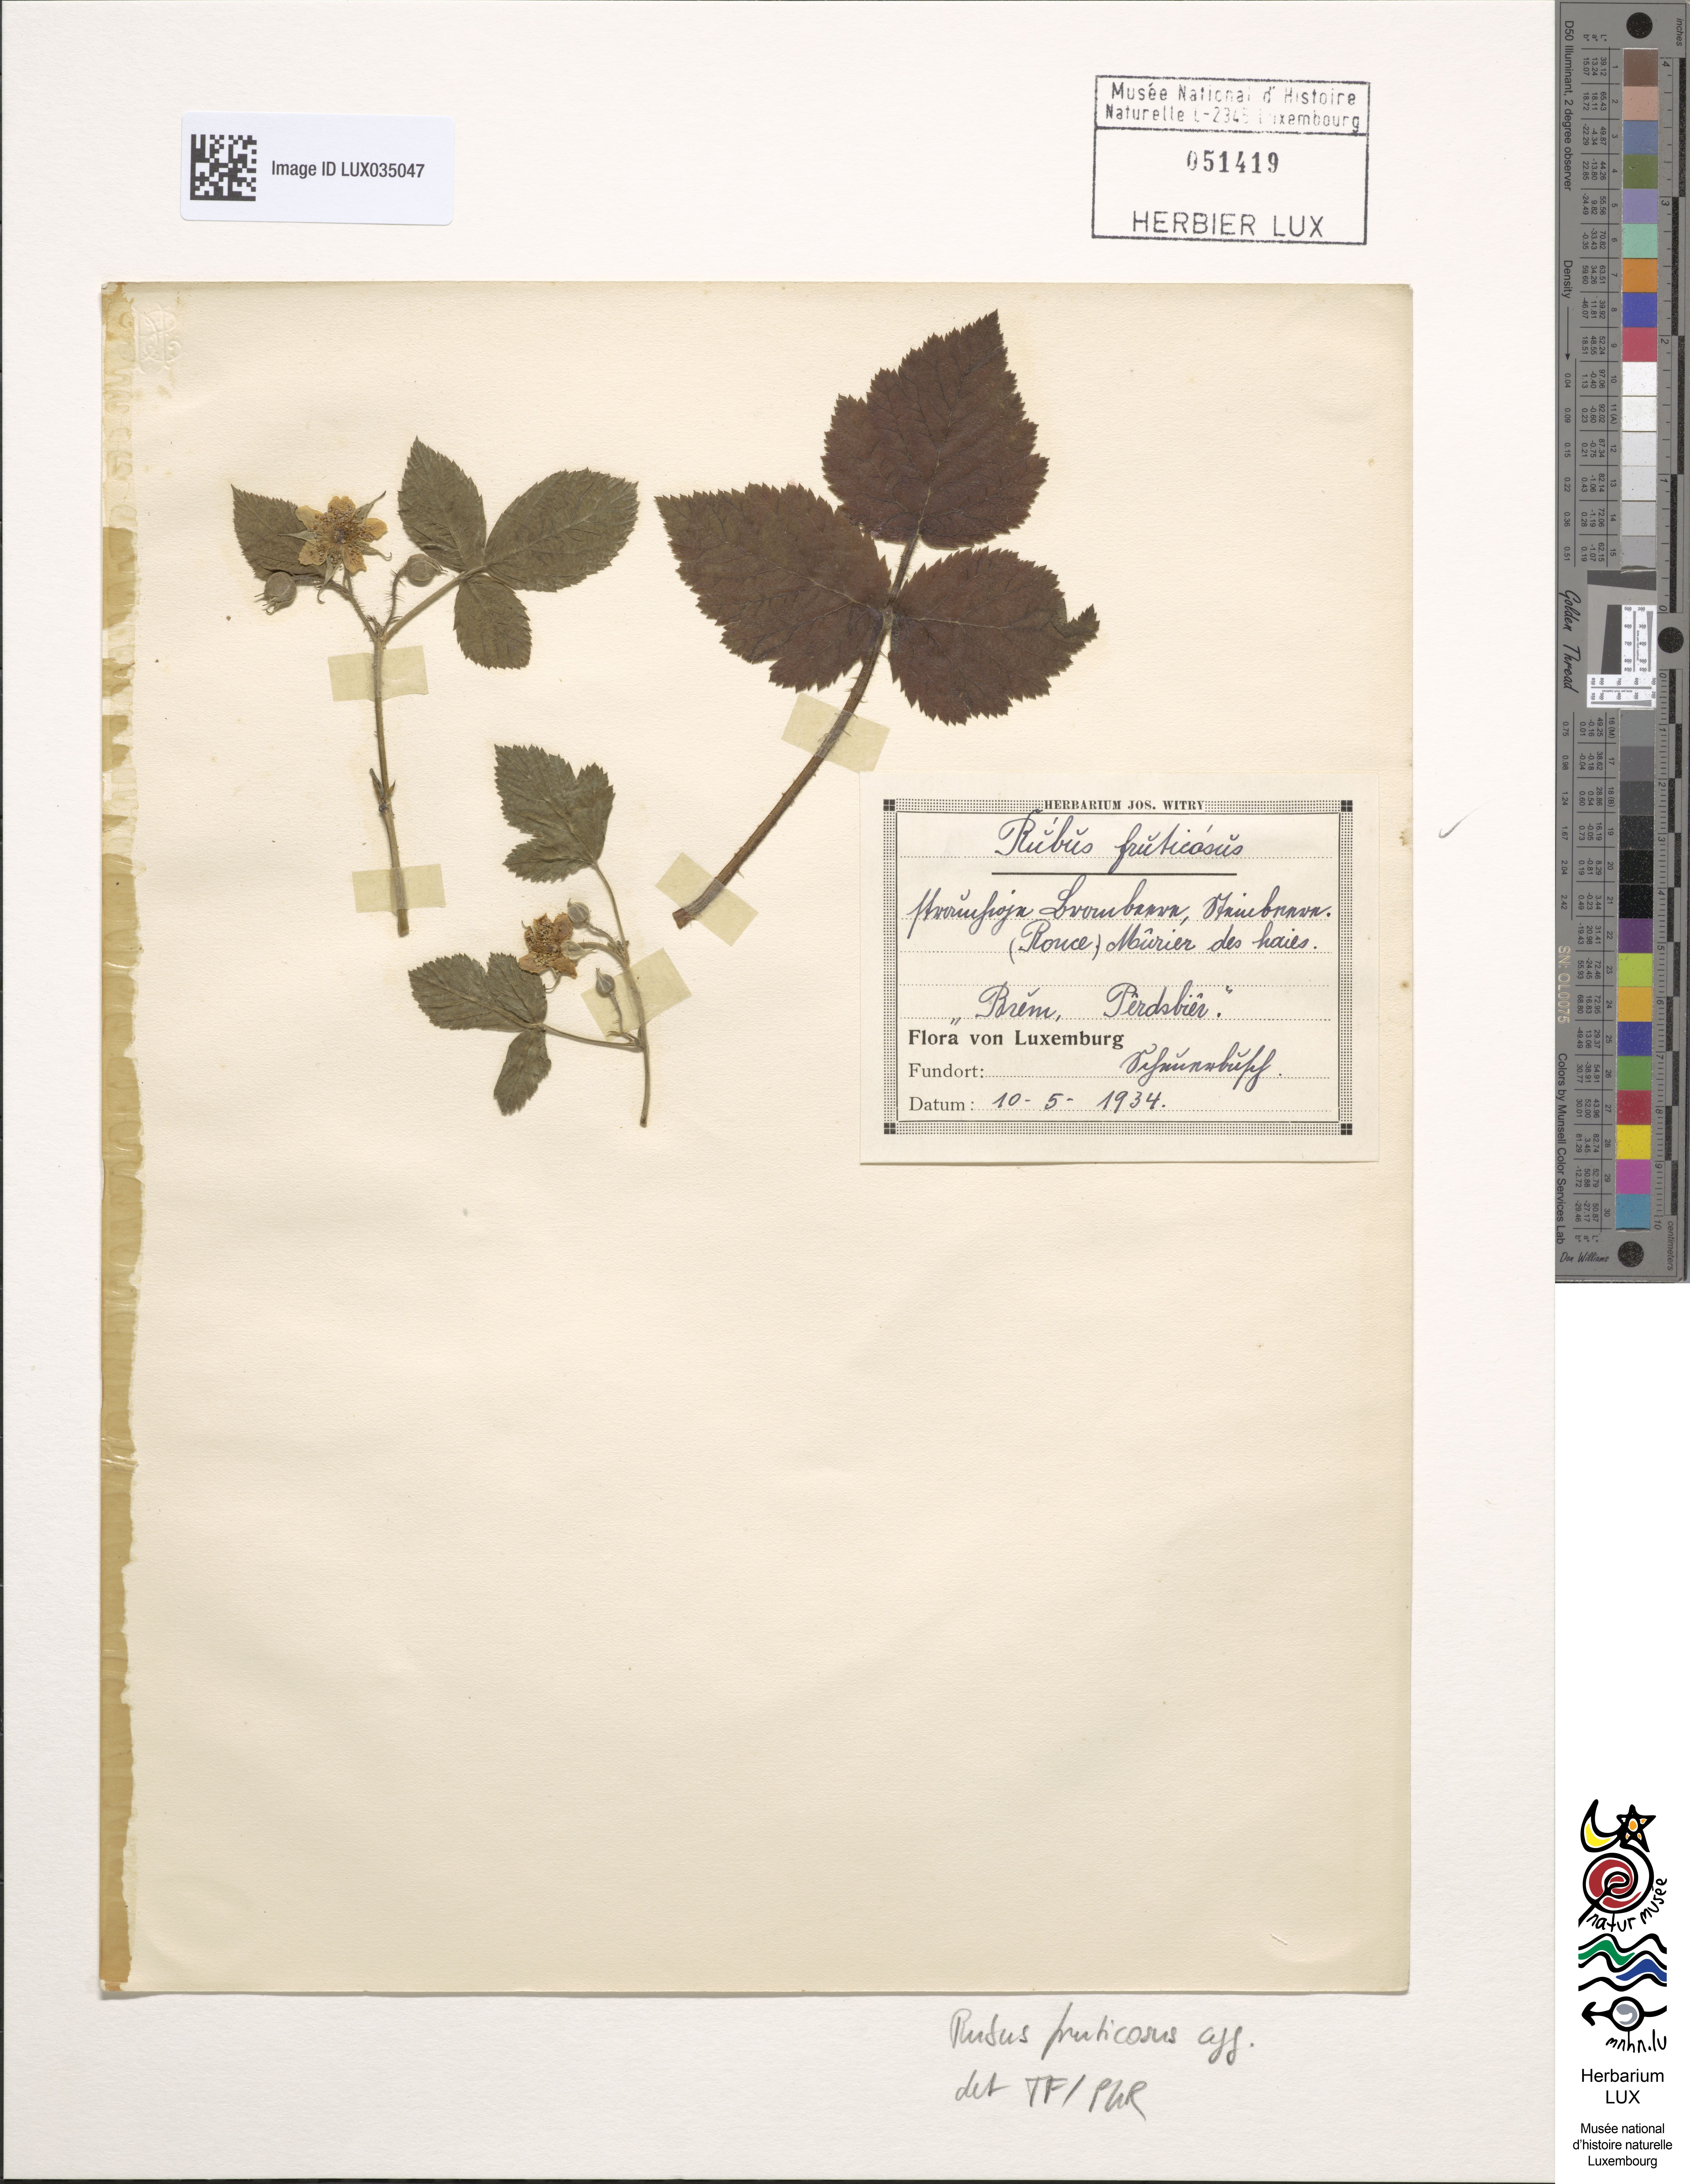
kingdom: Plantae
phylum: Tracheophyta
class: Magnoliopsida
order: Rosales
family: Rosaceae
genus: Rubus
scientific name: Rubus fruticosus
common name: Blackberry, bramble
